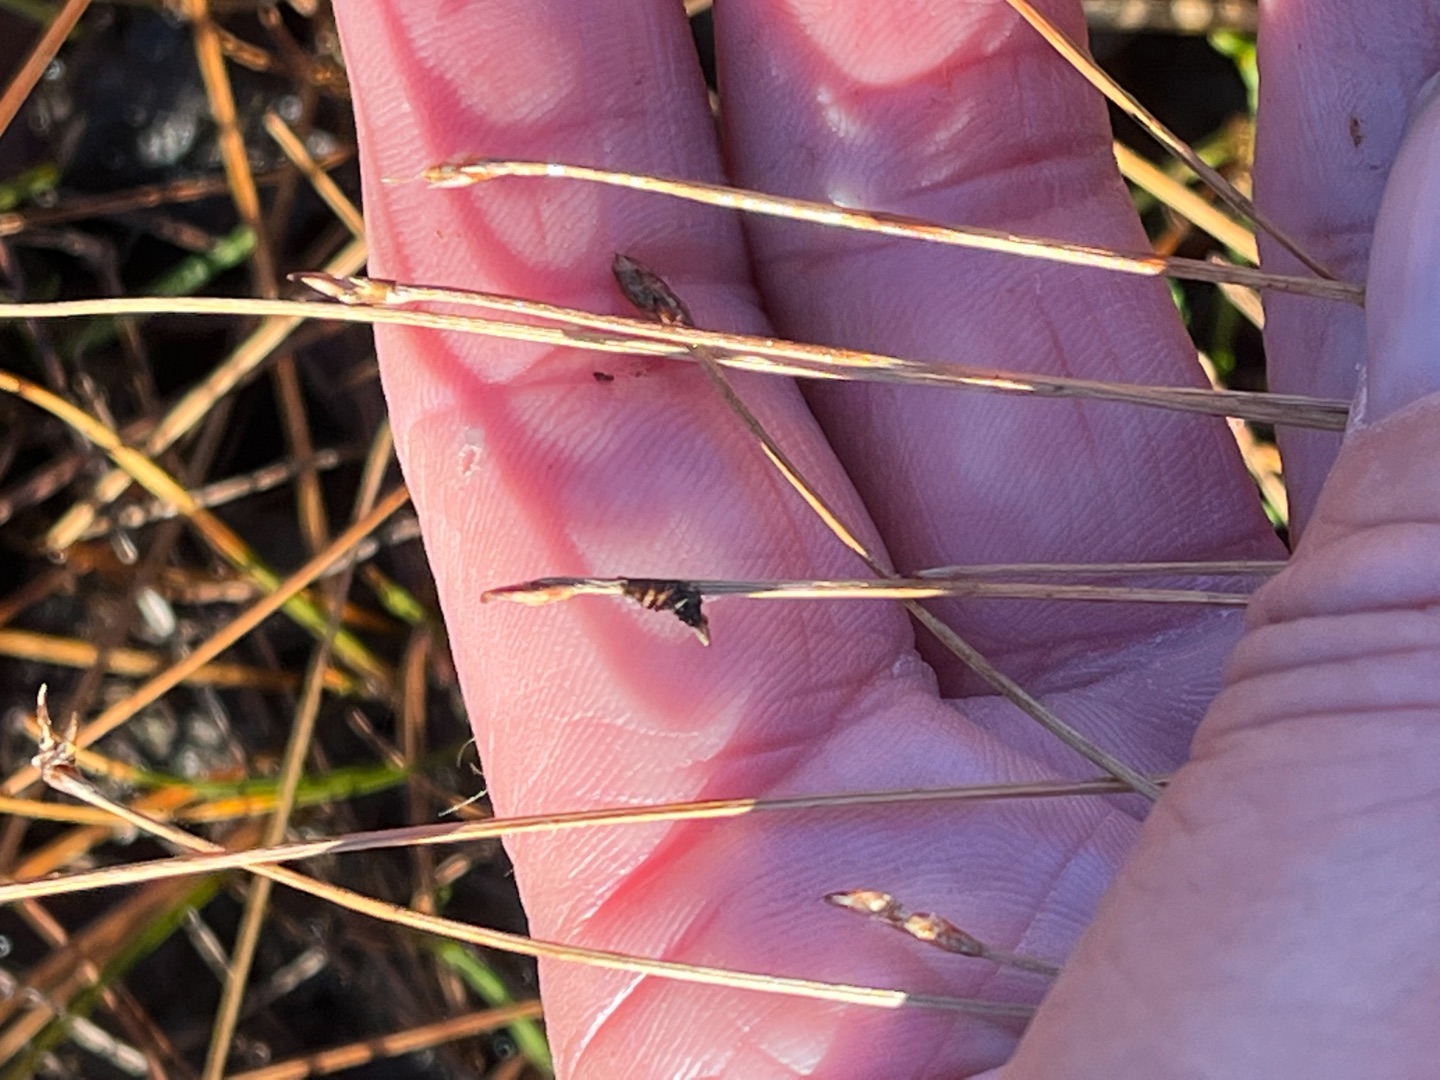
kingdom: Plantae
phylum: Tracheophyta
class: Liliopsida
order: Poales
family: Cyperaceae
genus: Eleocharis
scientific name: Eleocharis multicaulis
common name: Mangestænglet sumpstrå
